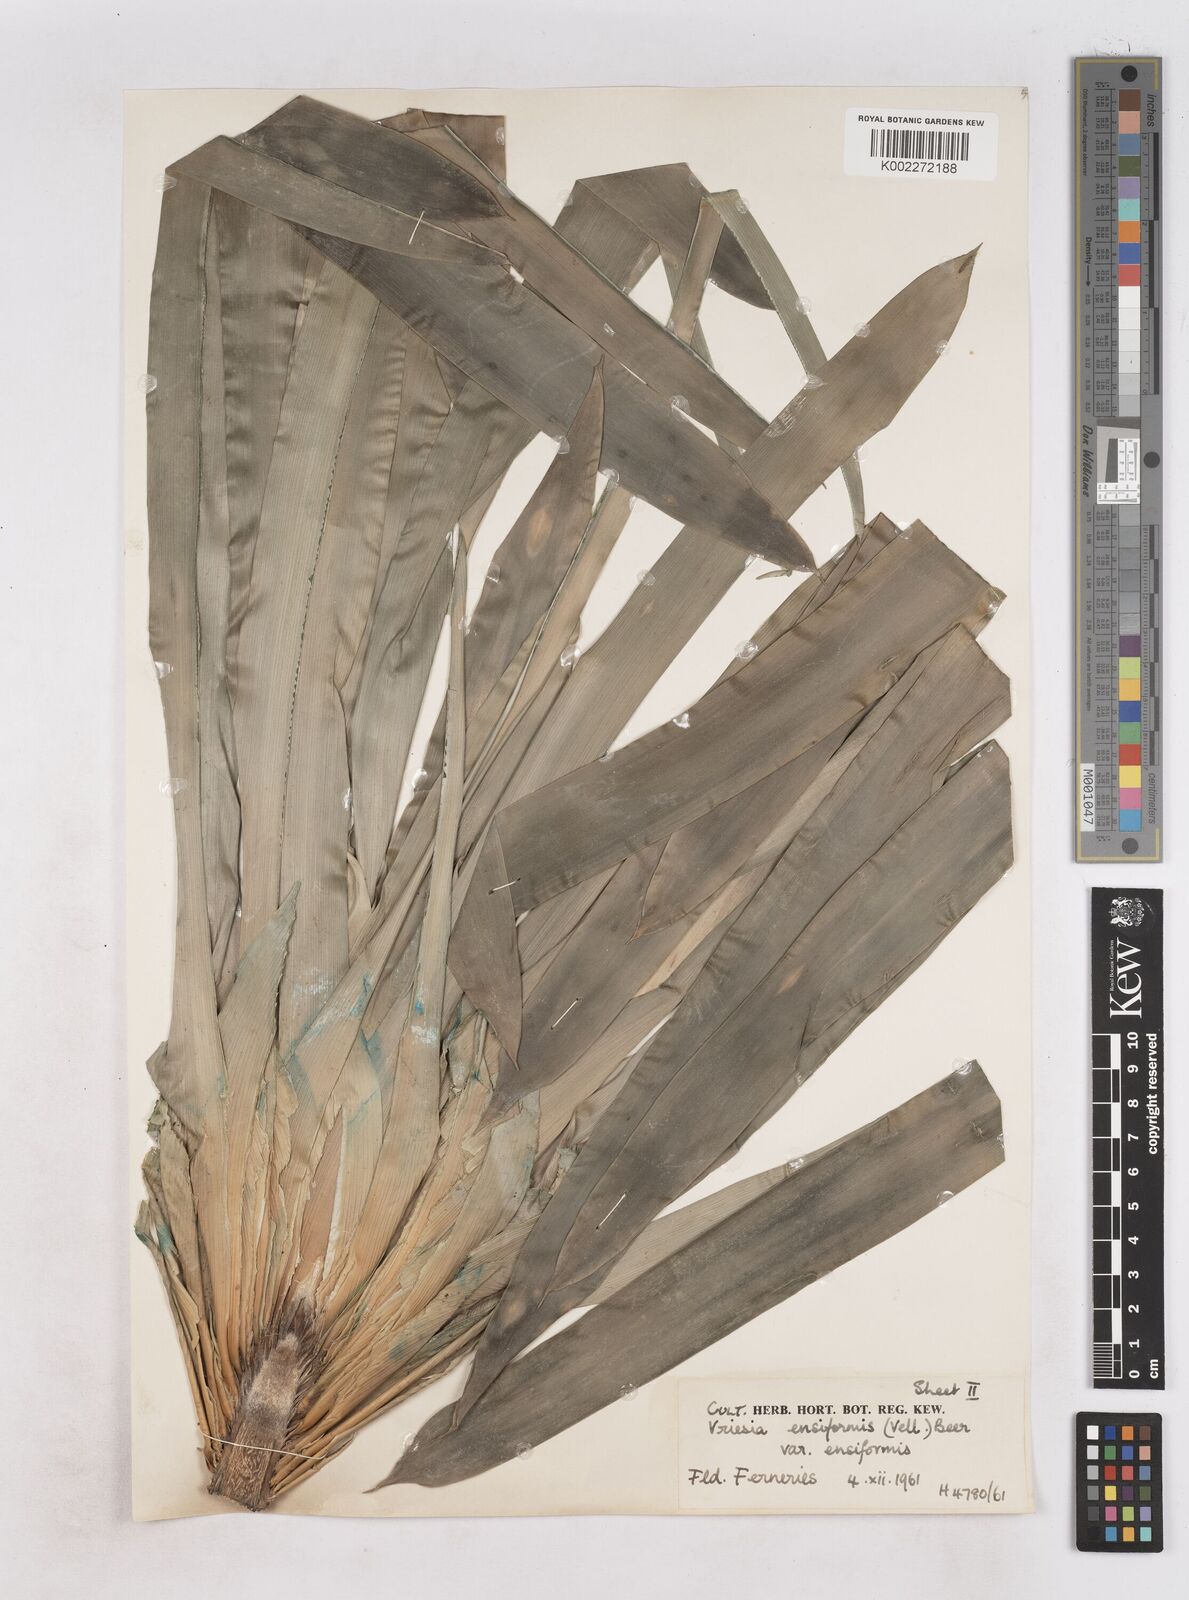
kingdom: Plantae
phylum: Tracheophyta
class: Liliopsida
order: Poales
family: Bromeliaceae
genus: Vriesea
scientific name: Vriesea ensiformis
